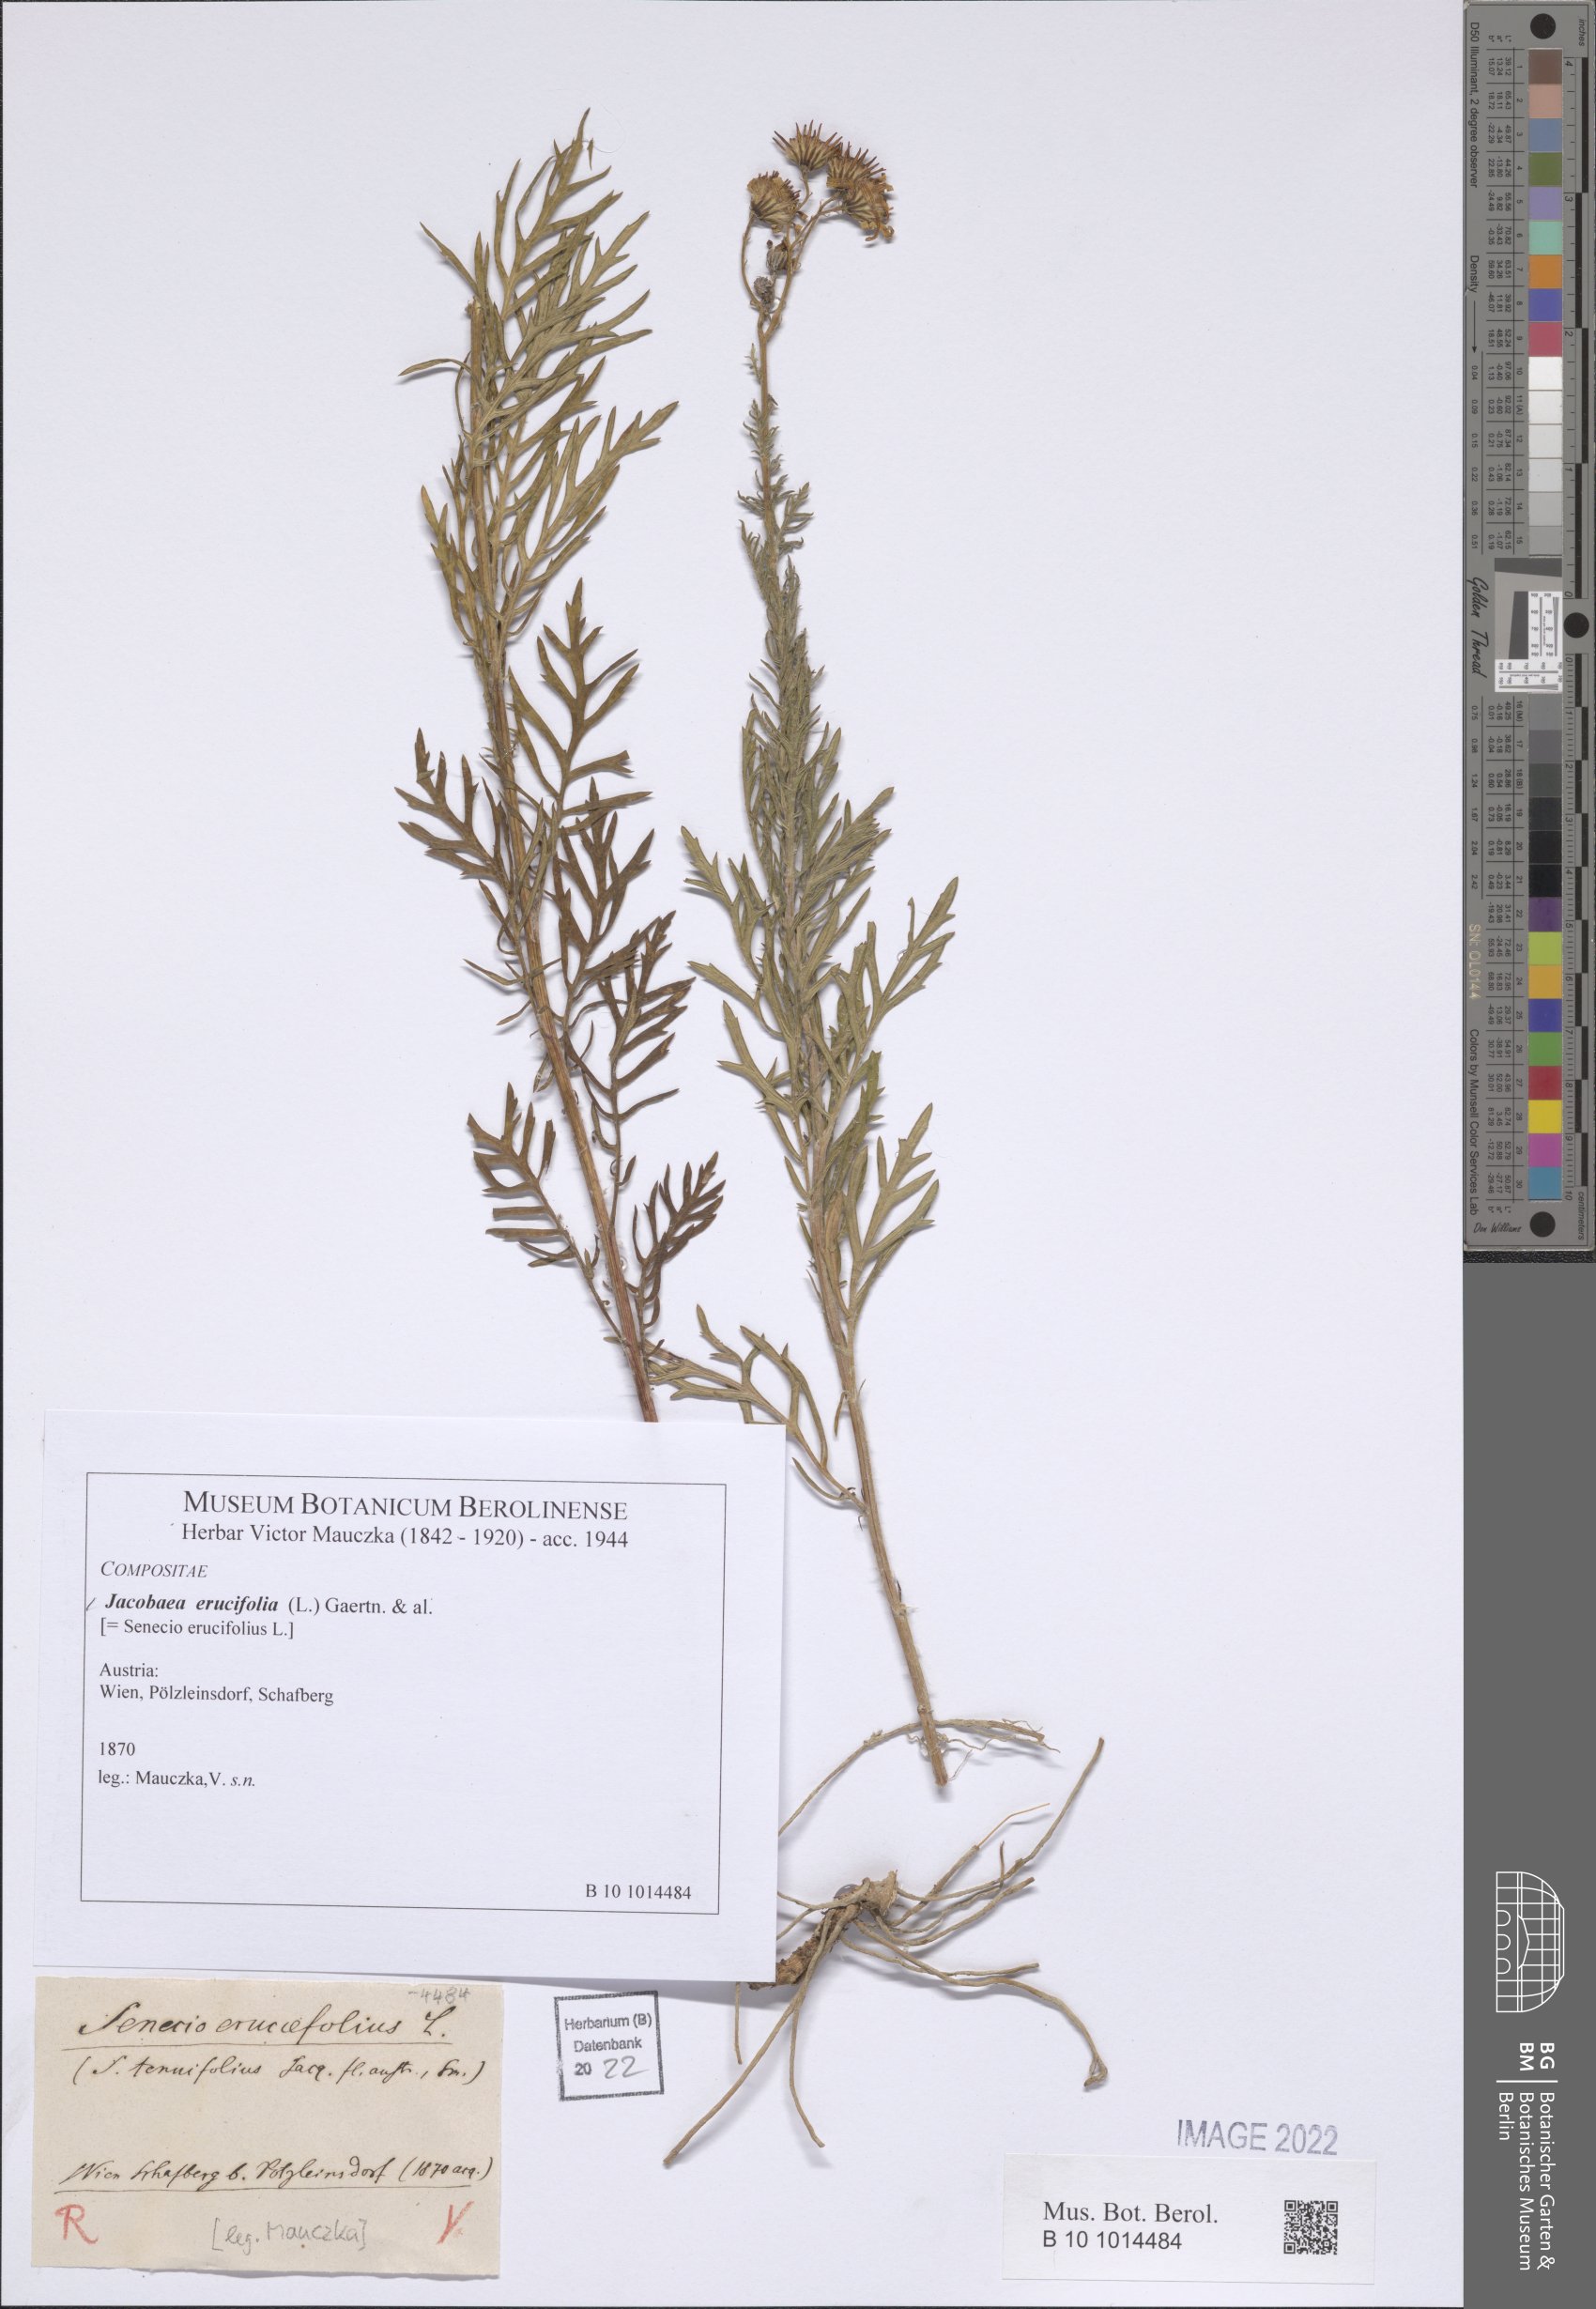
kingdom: Plantae
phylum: Tracheophyta
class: Magnoliopsida
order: Asterales
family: Asteraceae
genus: Jacobaea
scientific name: Jacobaea erucifolia
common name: Hoary ragwort
